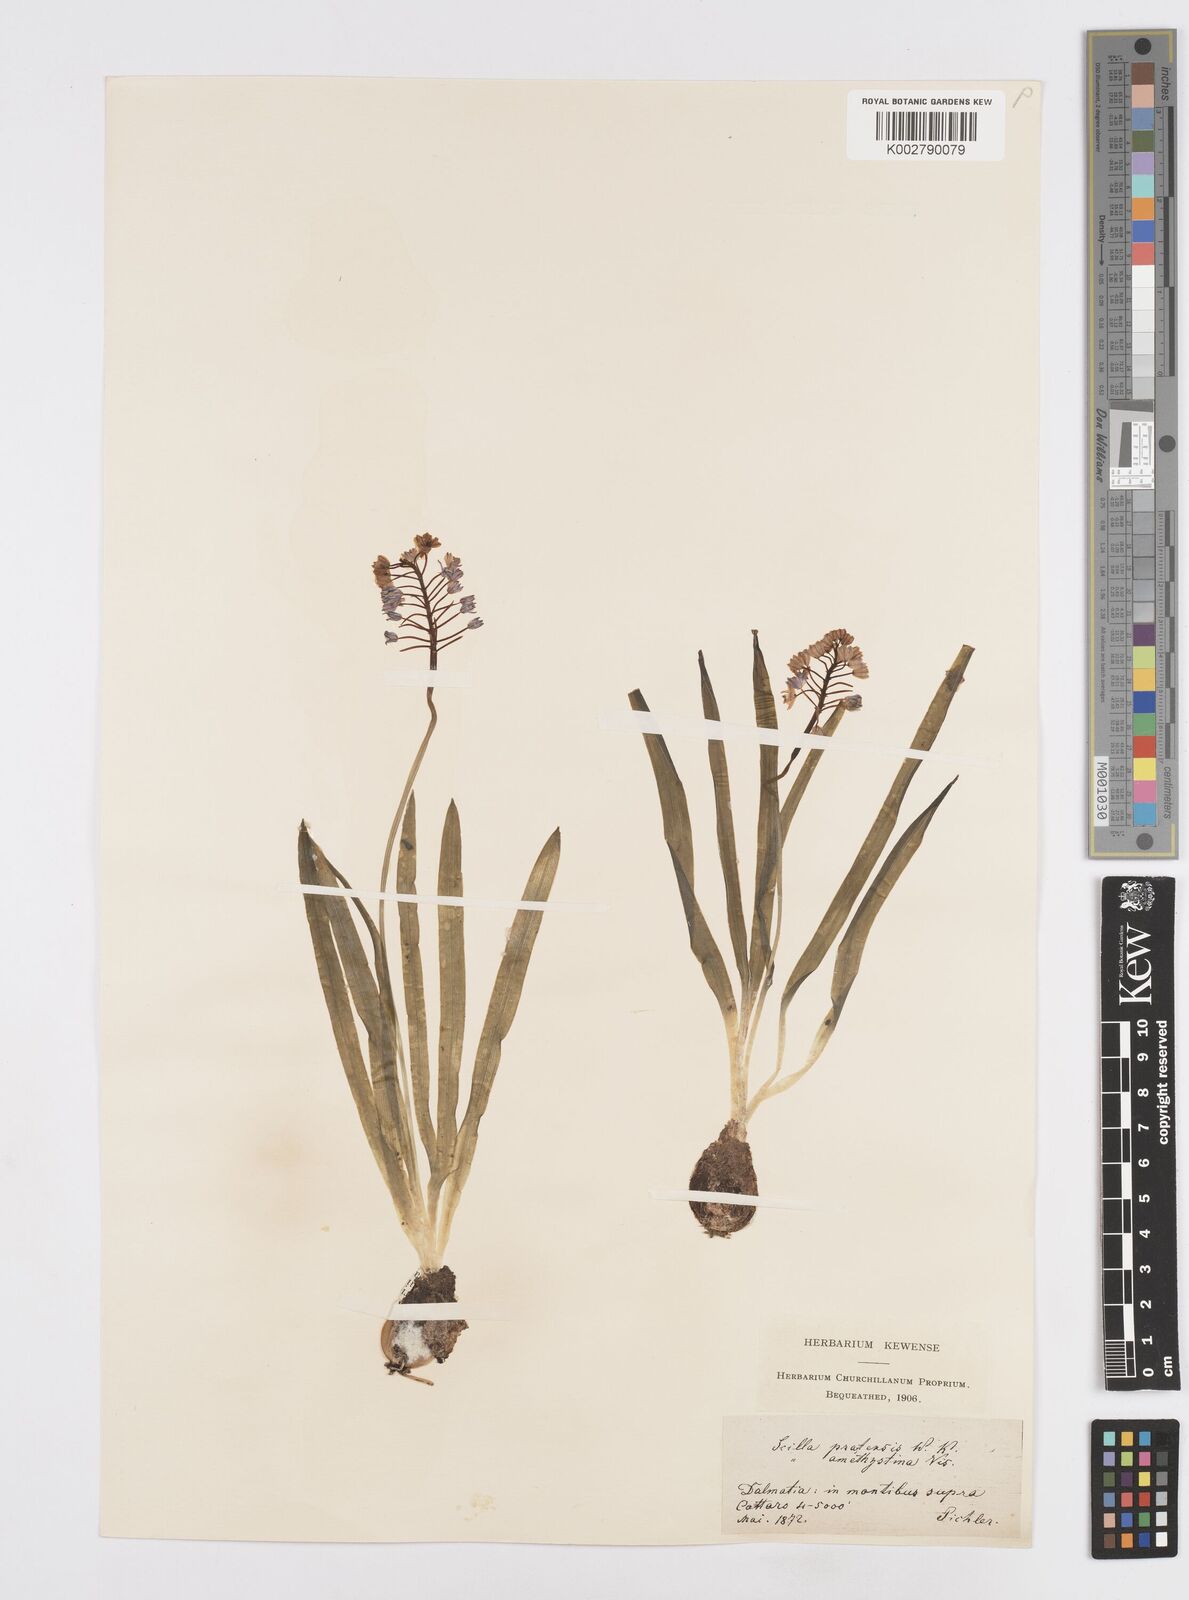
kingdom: Plantae
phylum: Tracheophyta
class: Liliopsida
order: Asparagales
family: Asparagaceae
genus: Scilla
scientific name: Scilla litardierei
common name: Amethyst meadow squill
